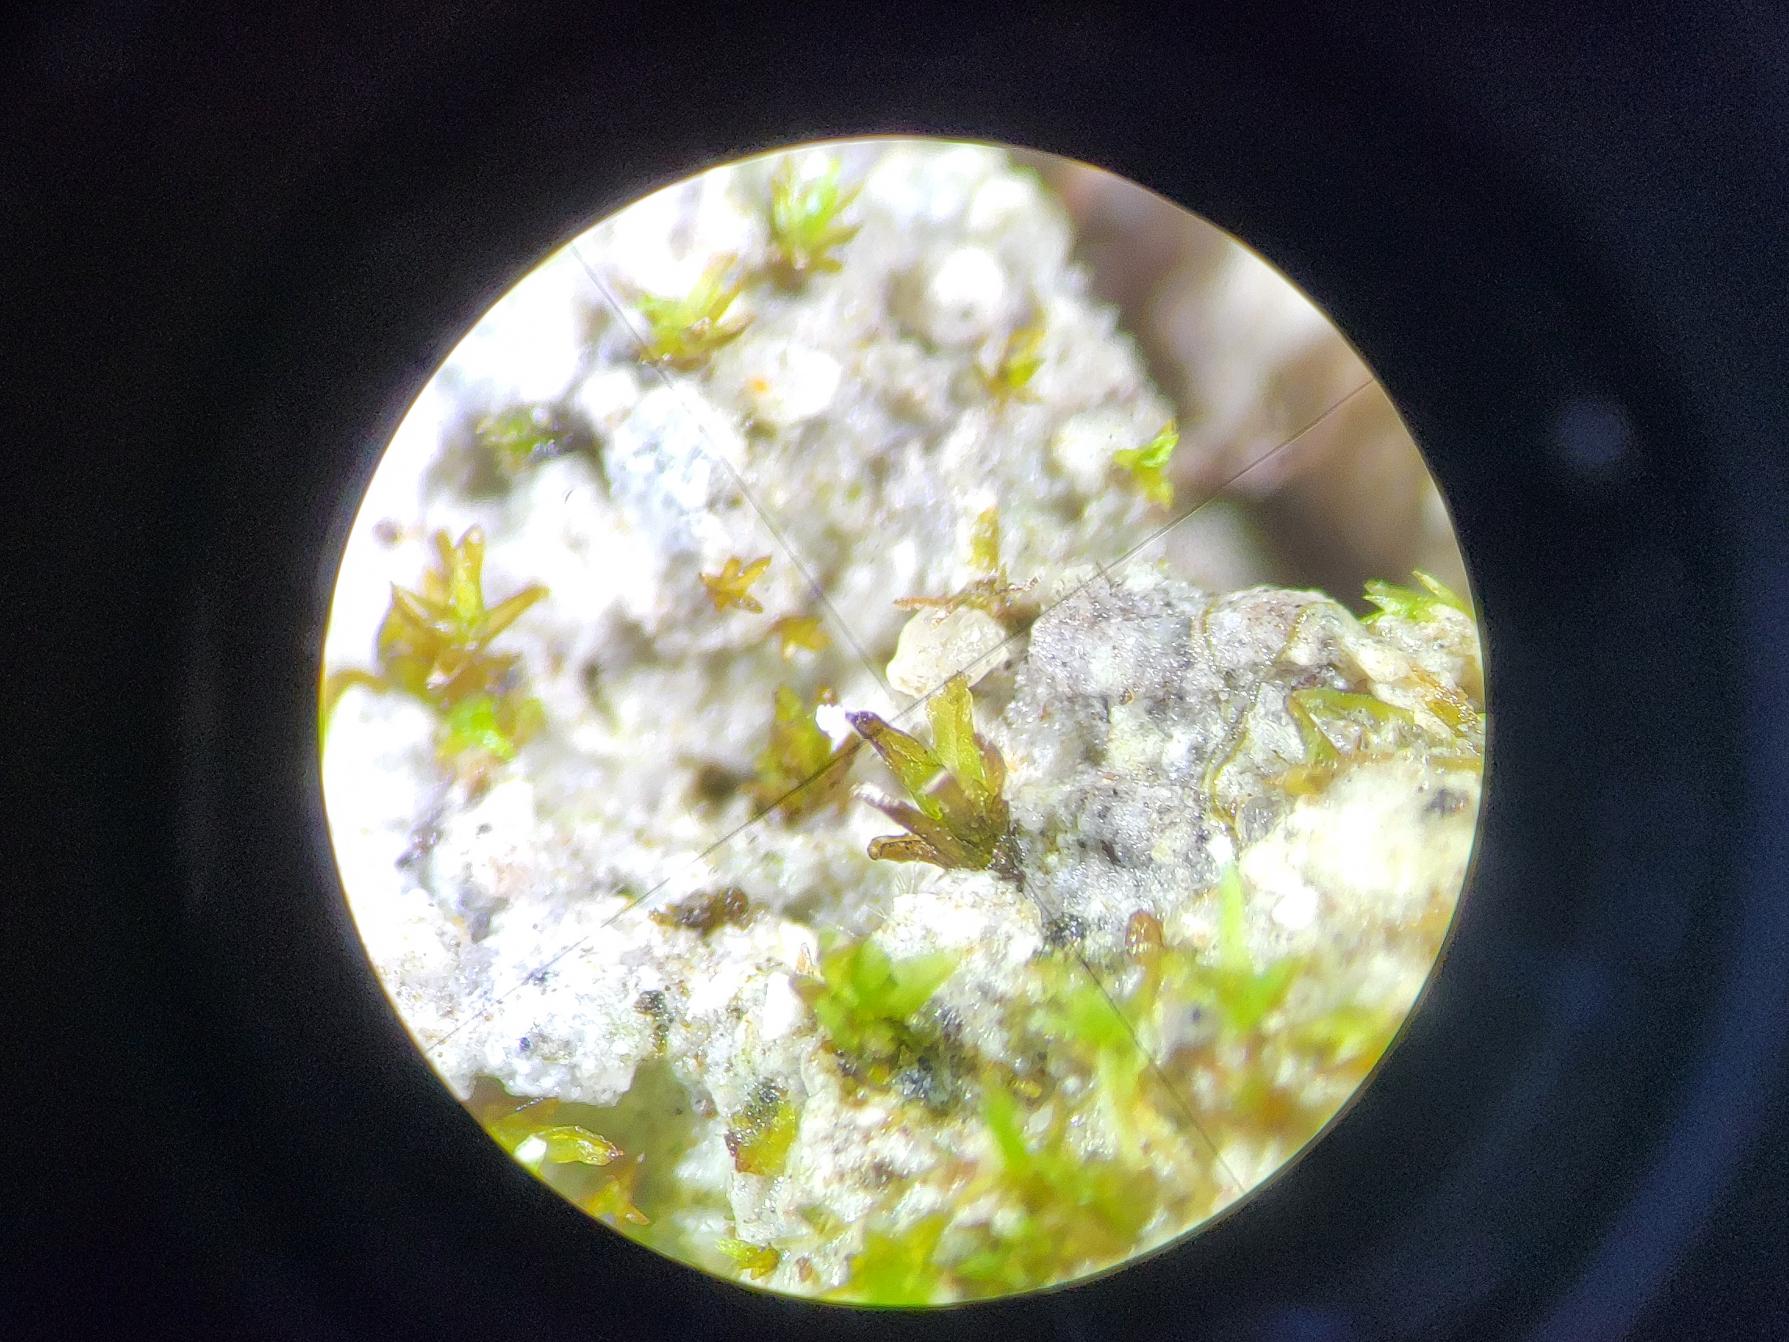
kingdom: Plantae
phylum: Bryophyta
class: Bryopsida
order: Pottiales
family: Pottiaceae
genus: Gyroweisia
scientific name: Gyroweisia tenuis
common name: Butbladet hindemos
